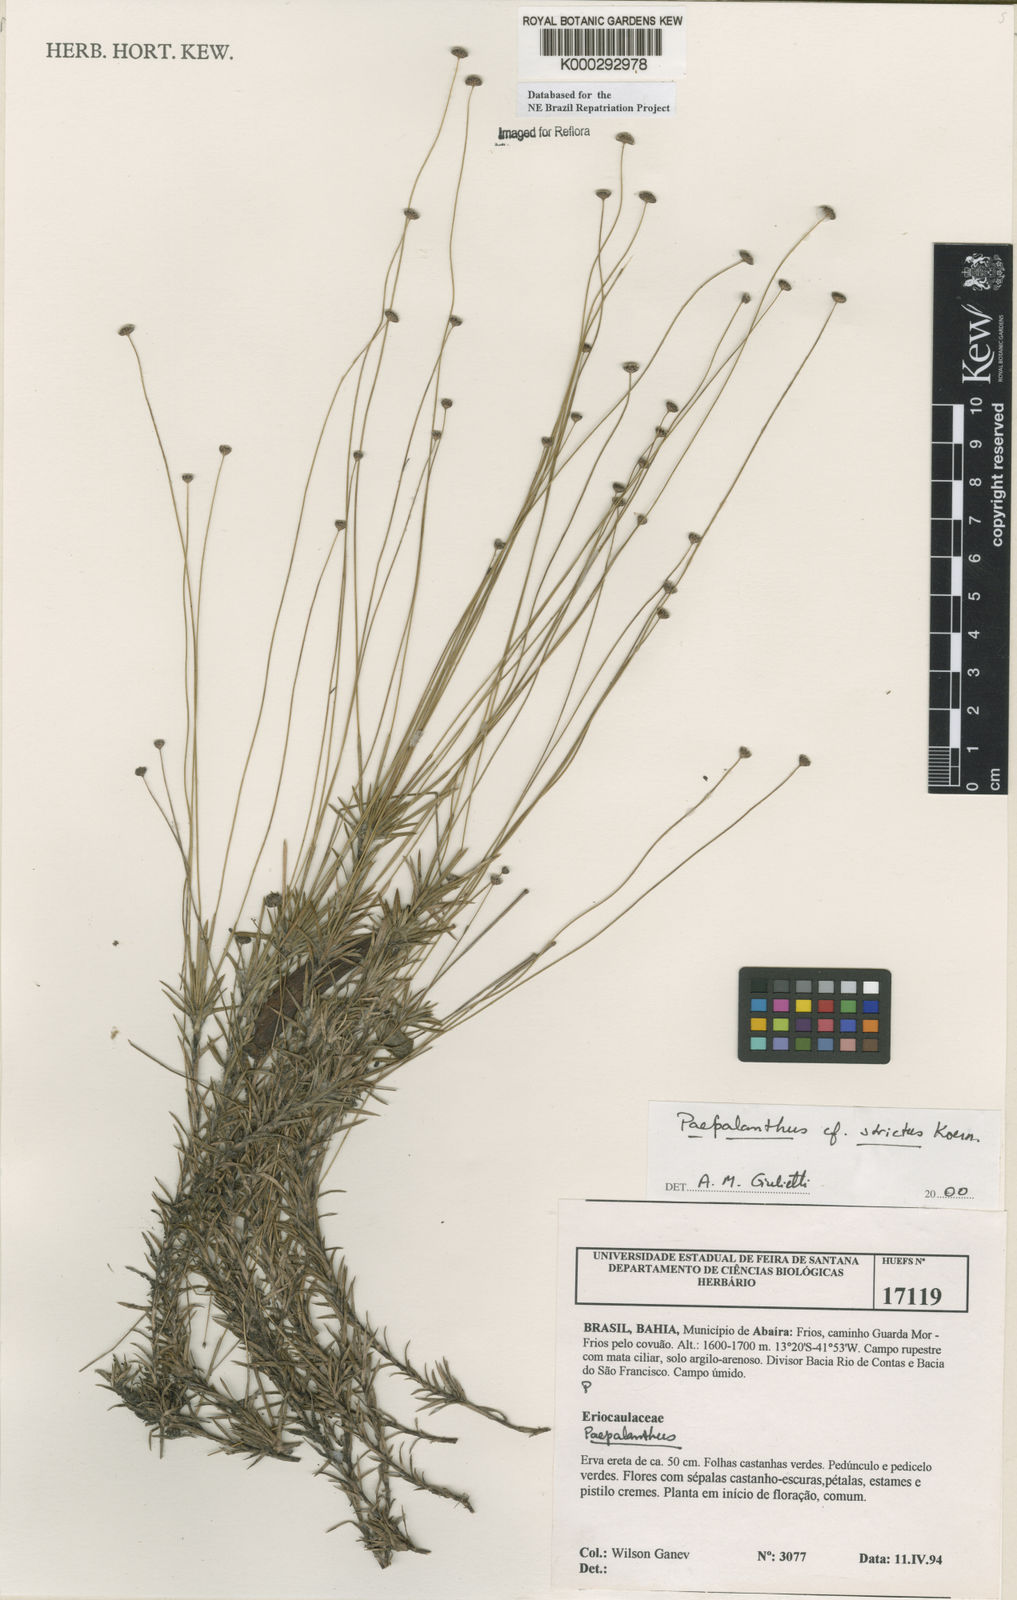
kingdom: Plantae
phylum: Tracheophyta
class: Liliopsida
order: Poales
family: Eriocaulaceae
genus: Paepalanthus
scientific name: Paepalanthus
